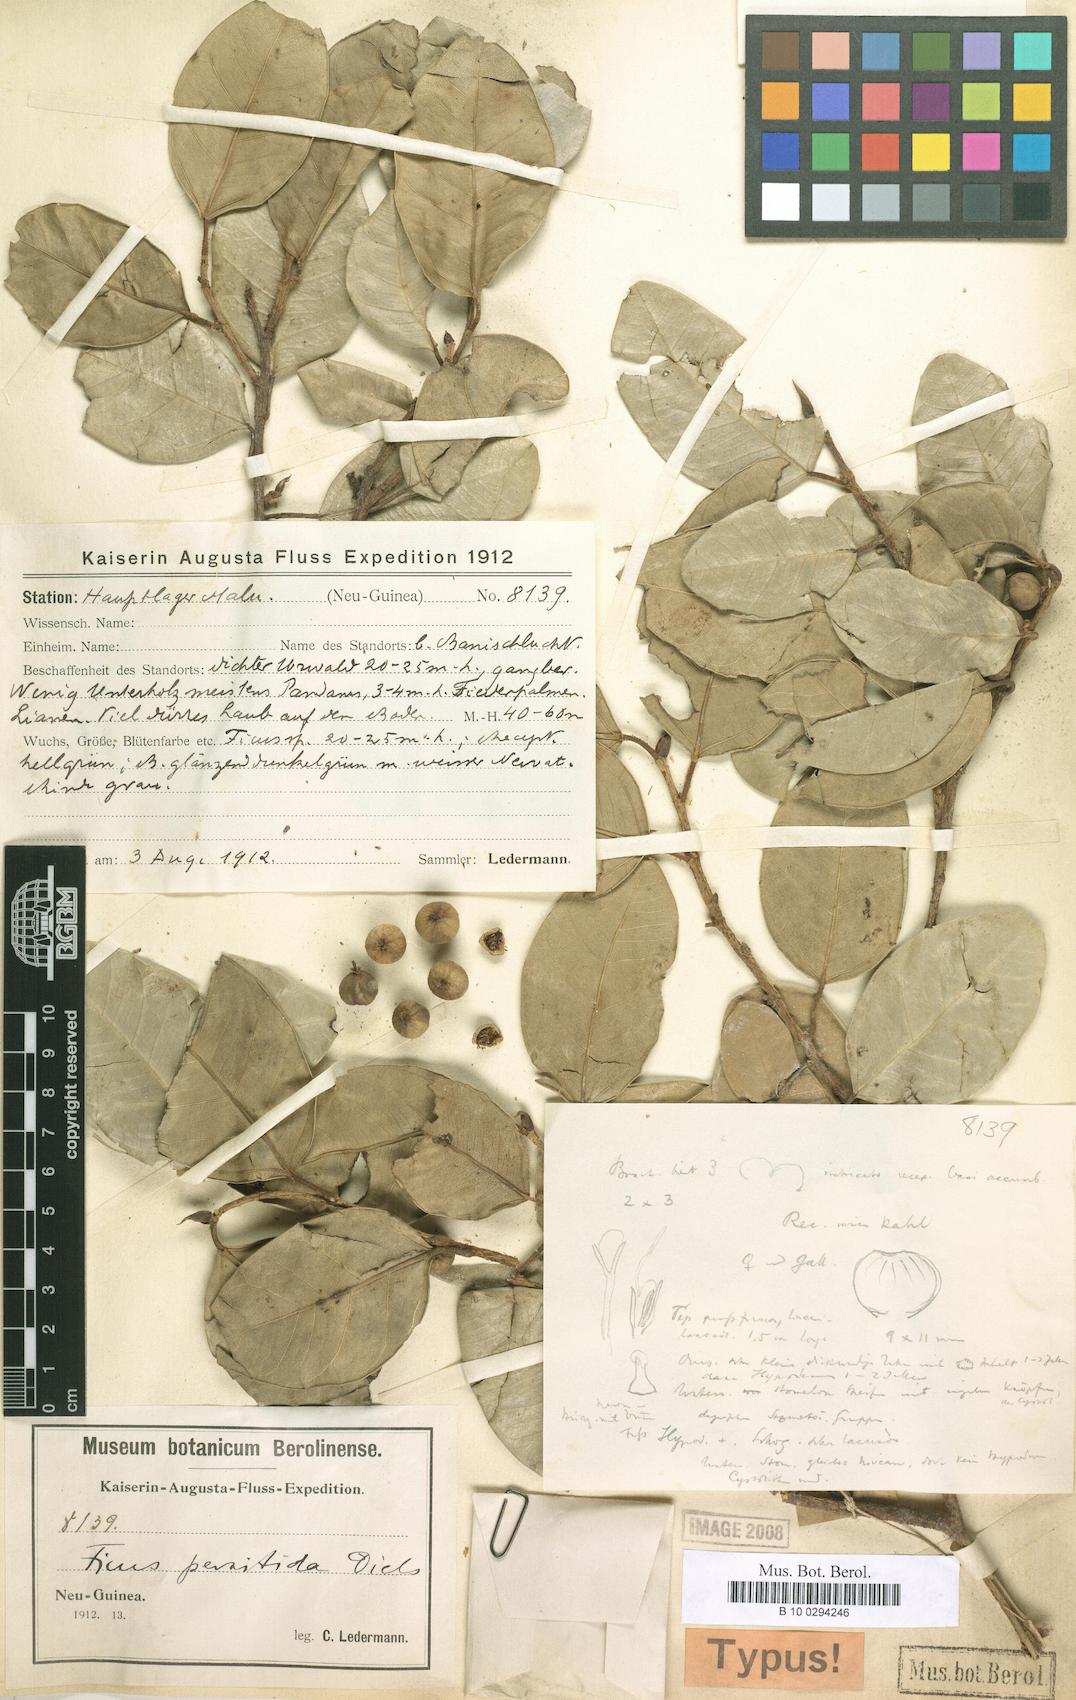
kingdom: Plantae
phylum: Tracheophyta
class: Magnoliopsida
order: Rosales
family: Moraceae
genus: Ficus
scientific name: Ficus distichoidea
